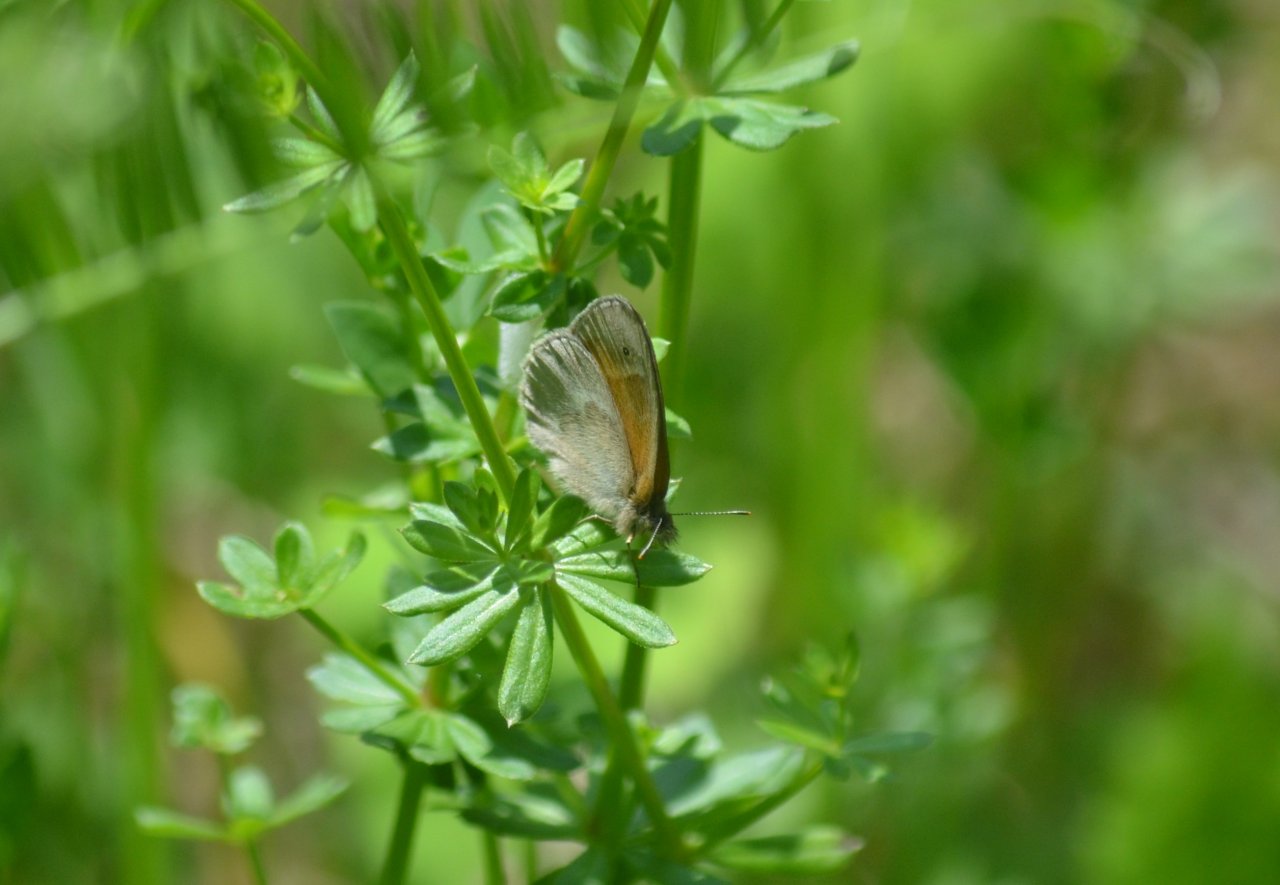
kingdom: Animalia
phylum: Arthropoda
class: Insecta
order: Lepidoptera
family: Nymphalidae
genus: Coenonympha
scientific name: Coenonympha tullia
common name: Large Heath
